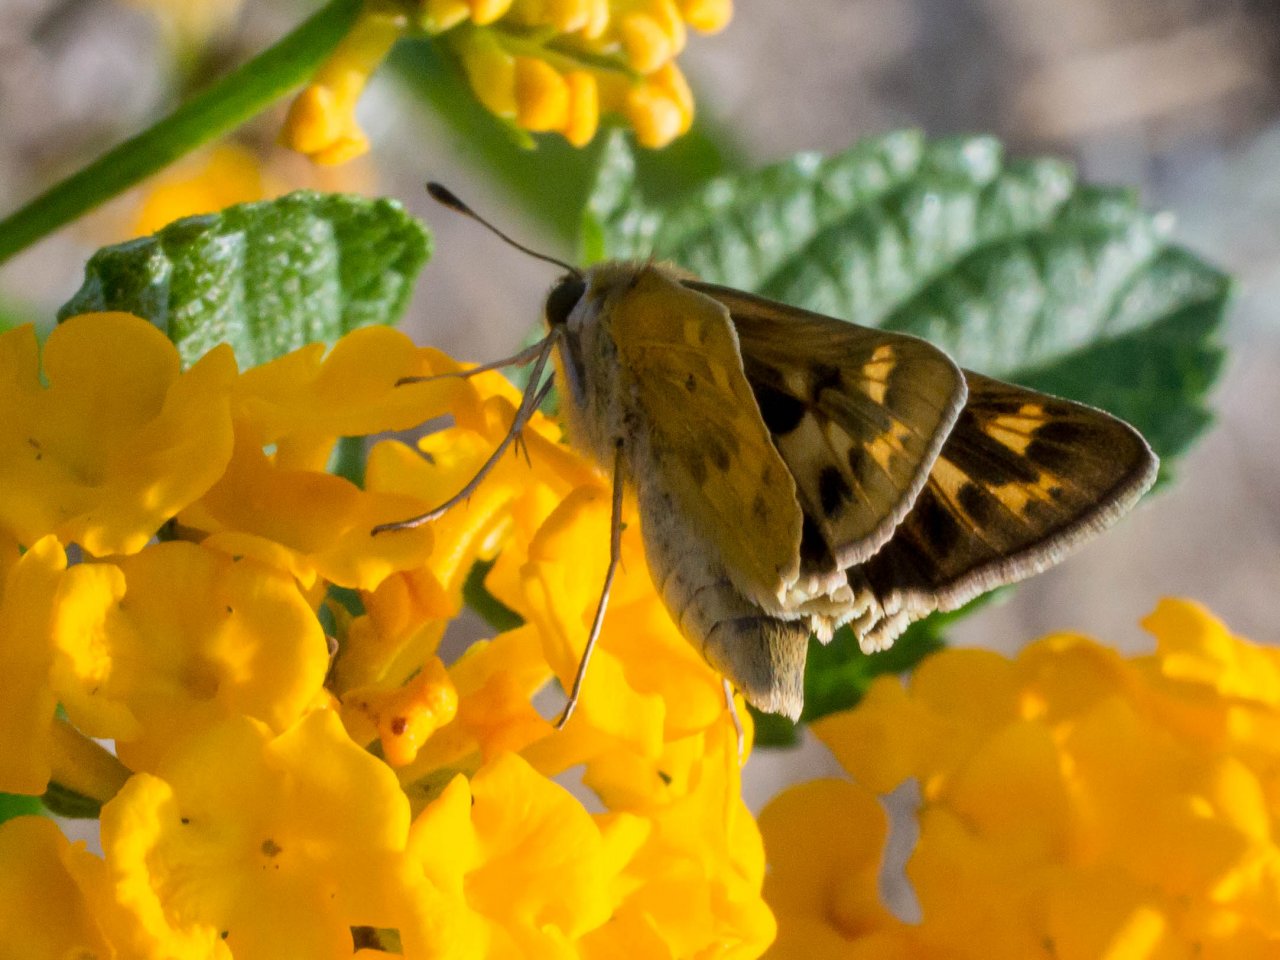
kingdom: Animalia
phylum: Arthropoda
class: Insecta
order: Lepidoptera
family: Hesperiidae
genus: Hylephila
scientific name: Hylephila phyleus
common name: Fiery Skipper
